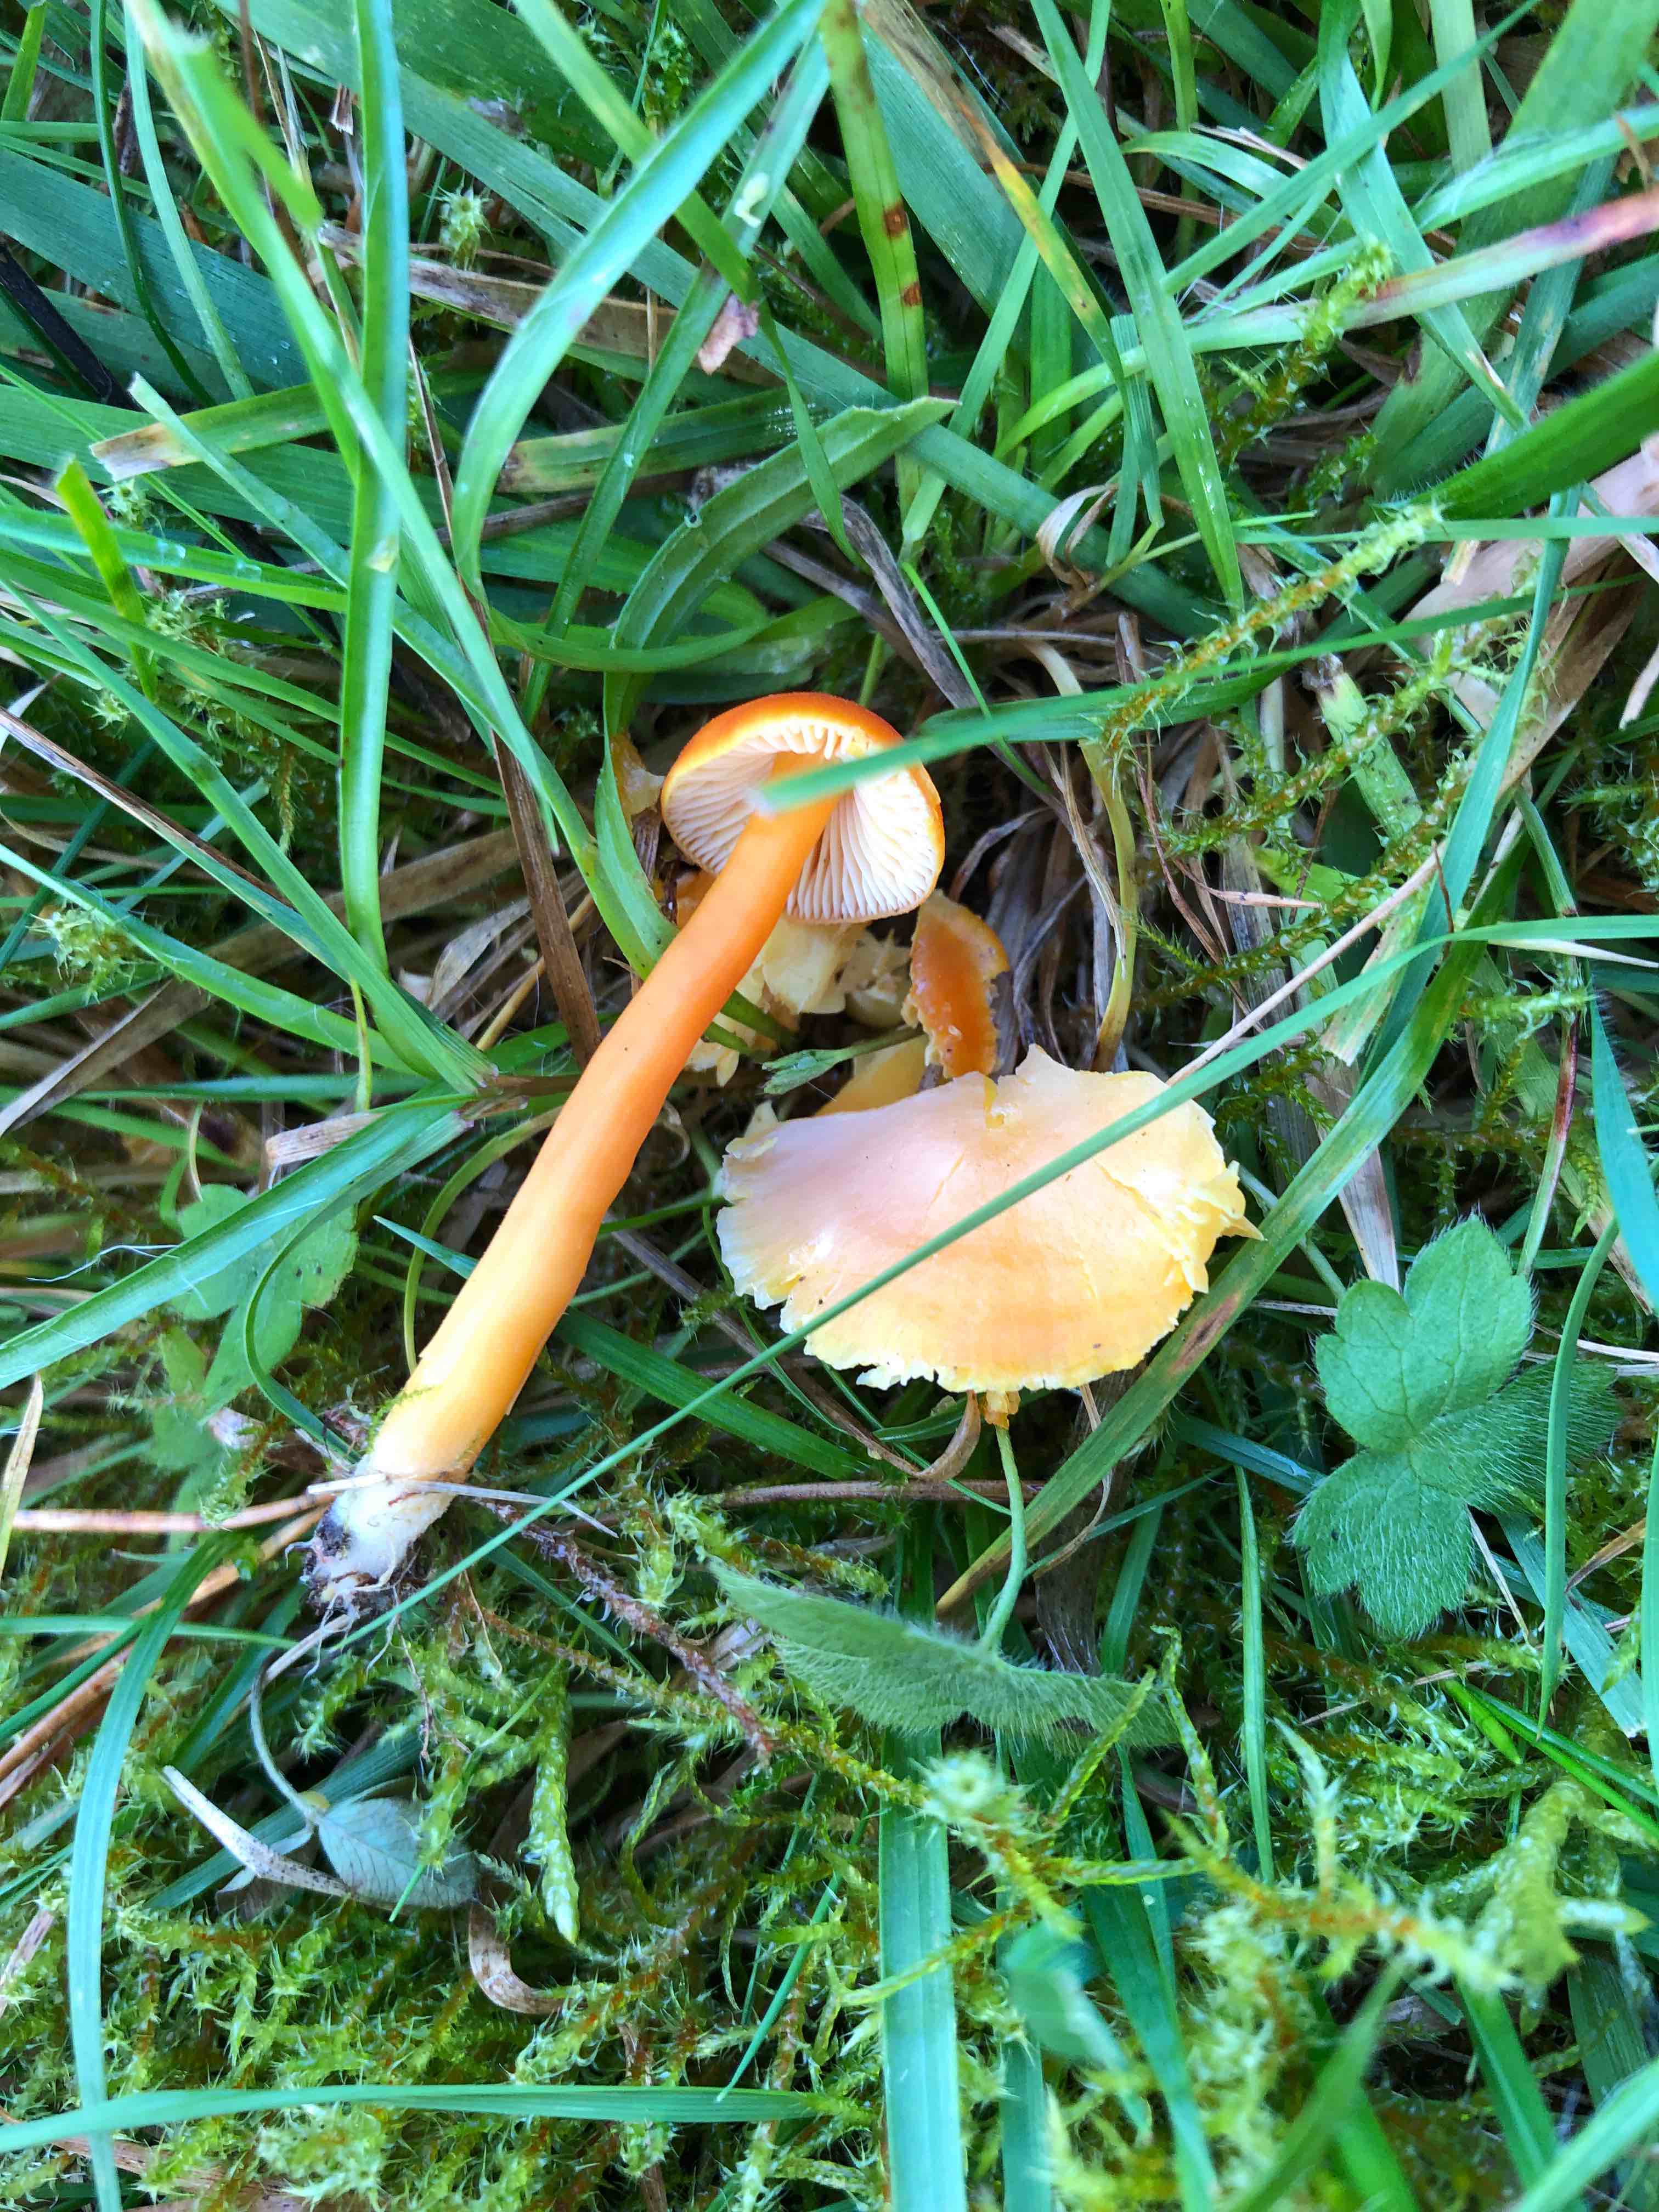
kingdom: Fungi
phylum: Basidiomycota
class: Agaricomycetes
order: Agaricales
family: Hygrophoraceae
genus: Hygrocybe
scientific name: Hygrocybe reidii
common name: honning-vokshat
